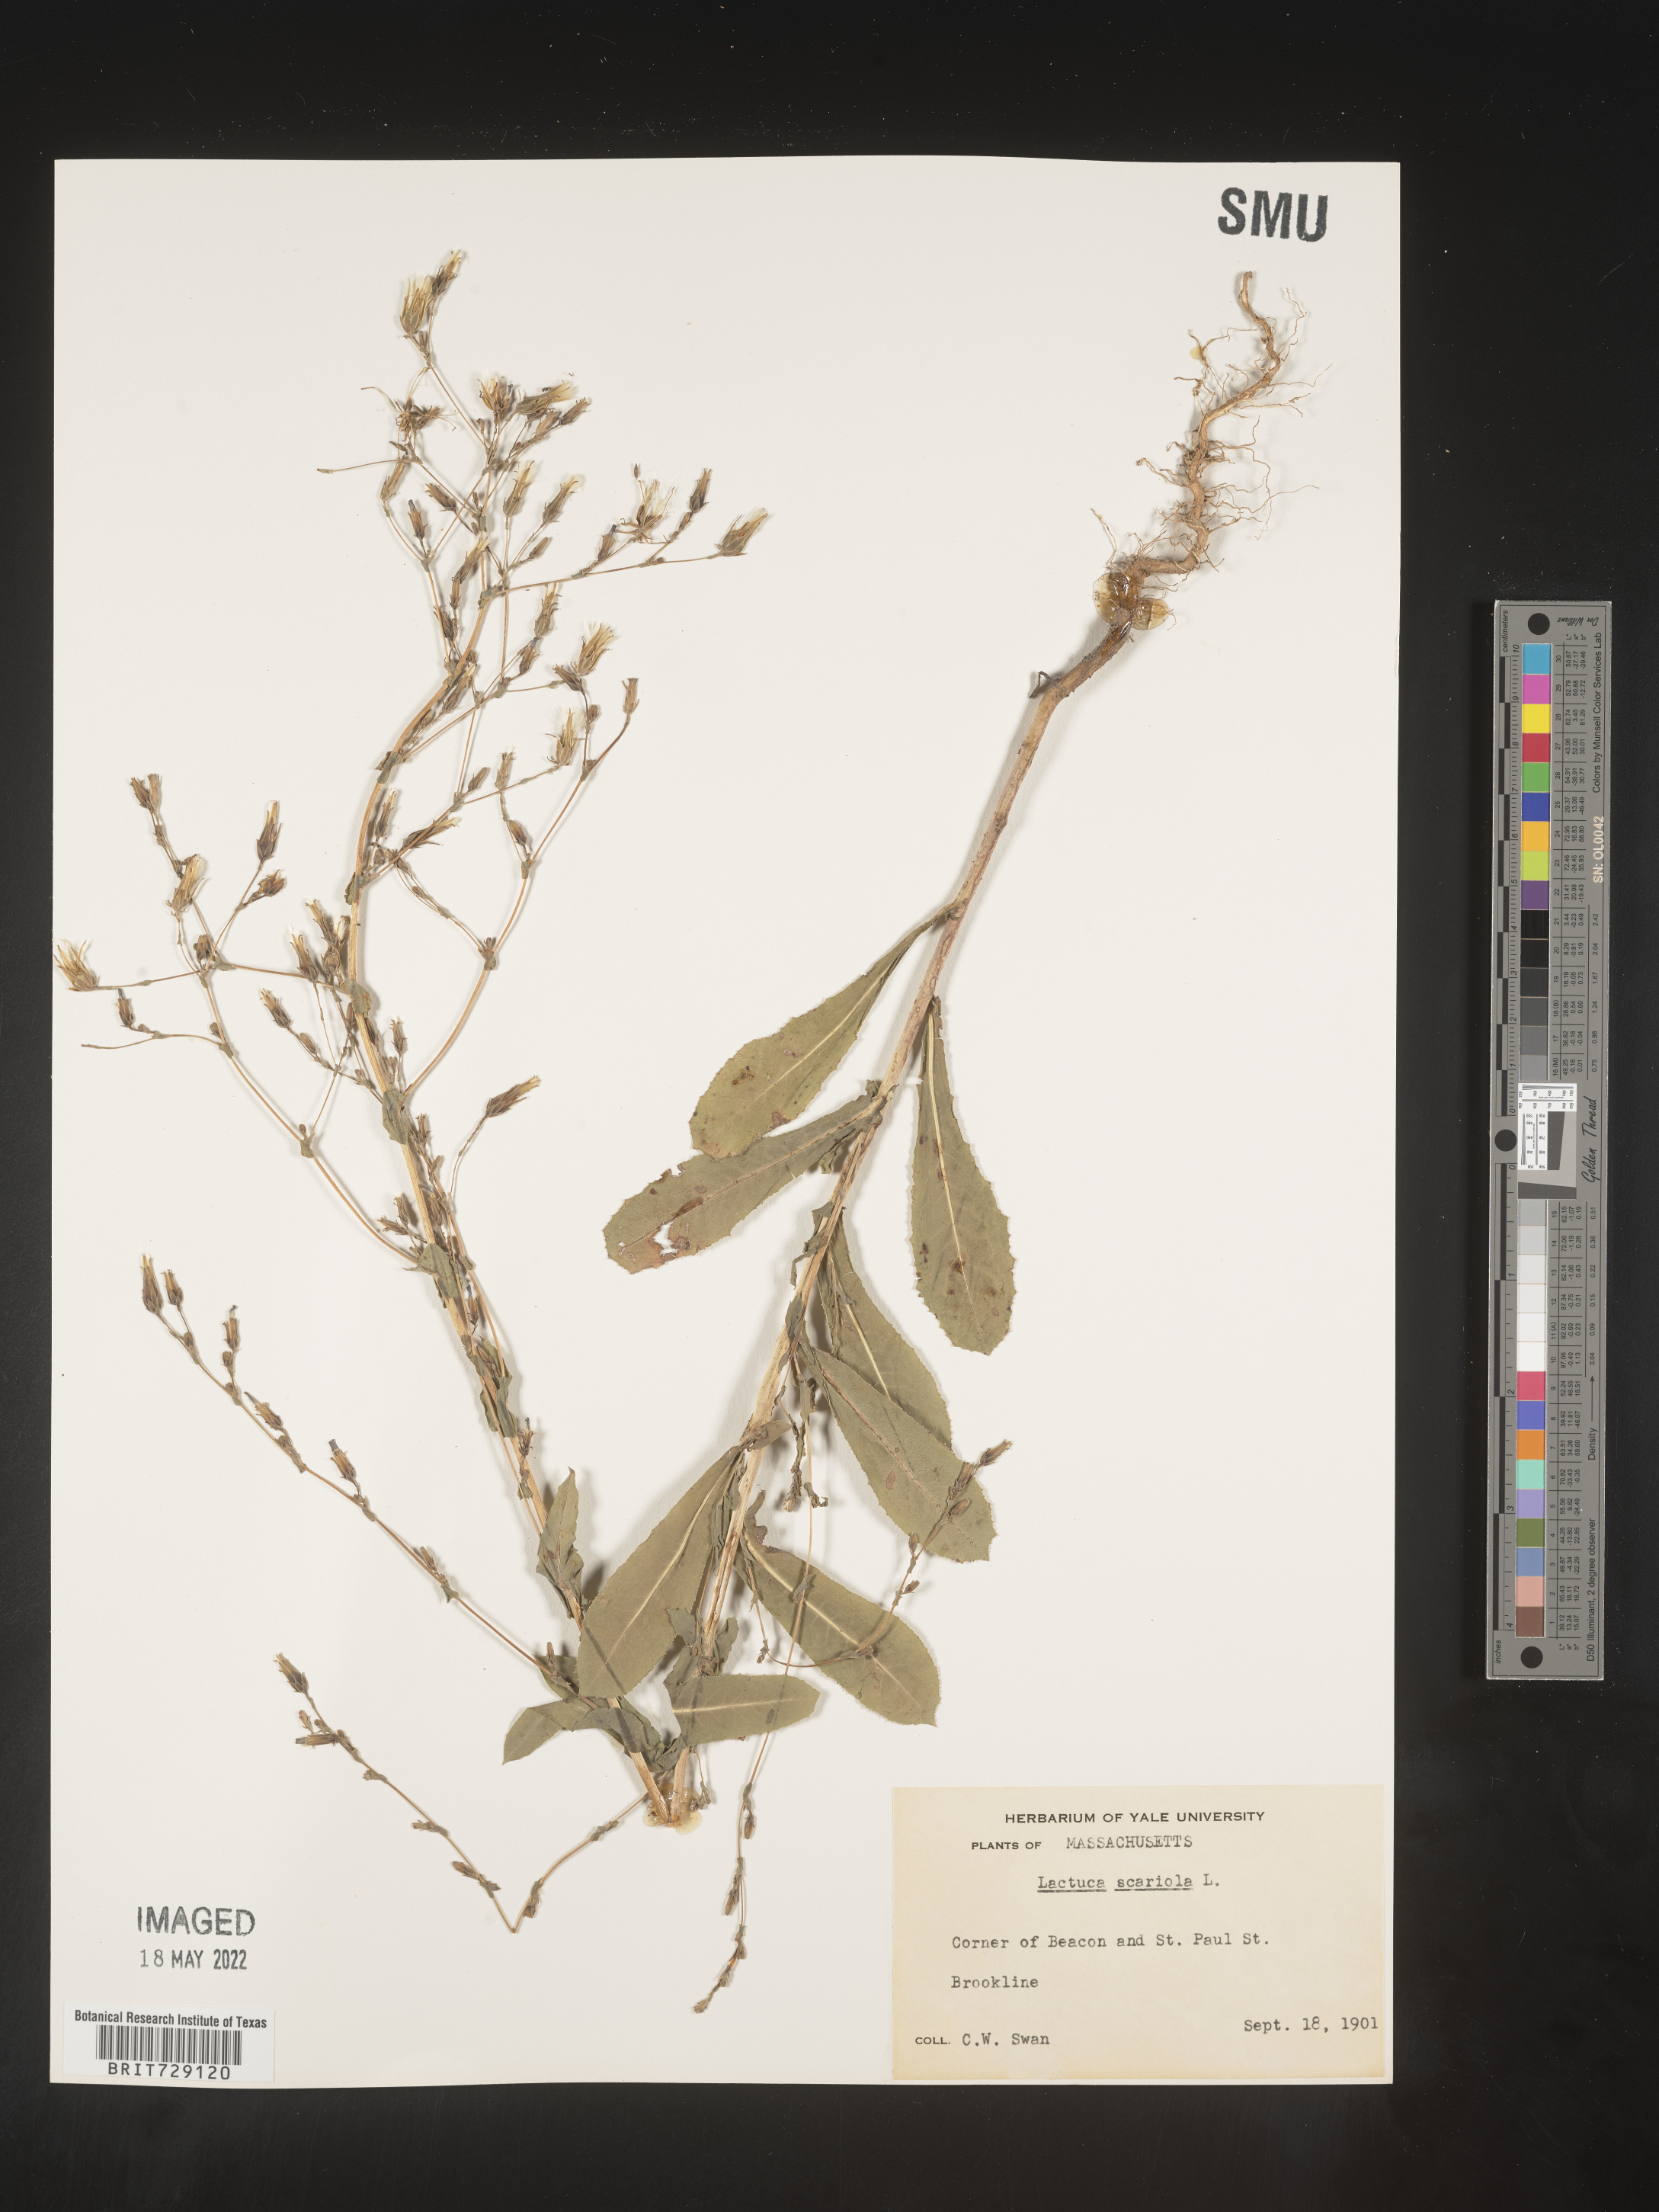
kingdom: Plantae
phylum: Tracheophyta
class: Magnoliopsida
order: Asterales
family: Asteraceae
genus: Lactuca
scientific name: Lactuca serriola
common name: Prickly lettuce
